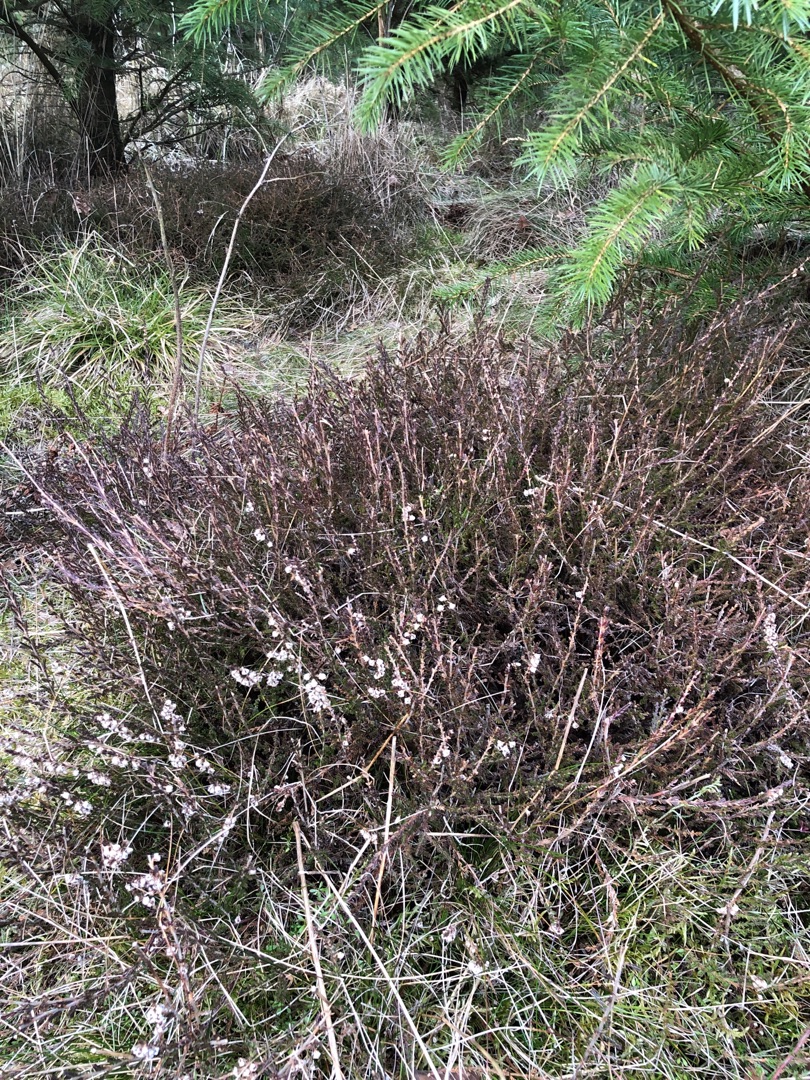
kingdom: Plantae
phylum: Tracheophyta
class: Magnoliopsida
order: Ericales
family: Ericaceae
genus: Calluna
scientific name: Calluna vulgaris
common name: Hedelyng
